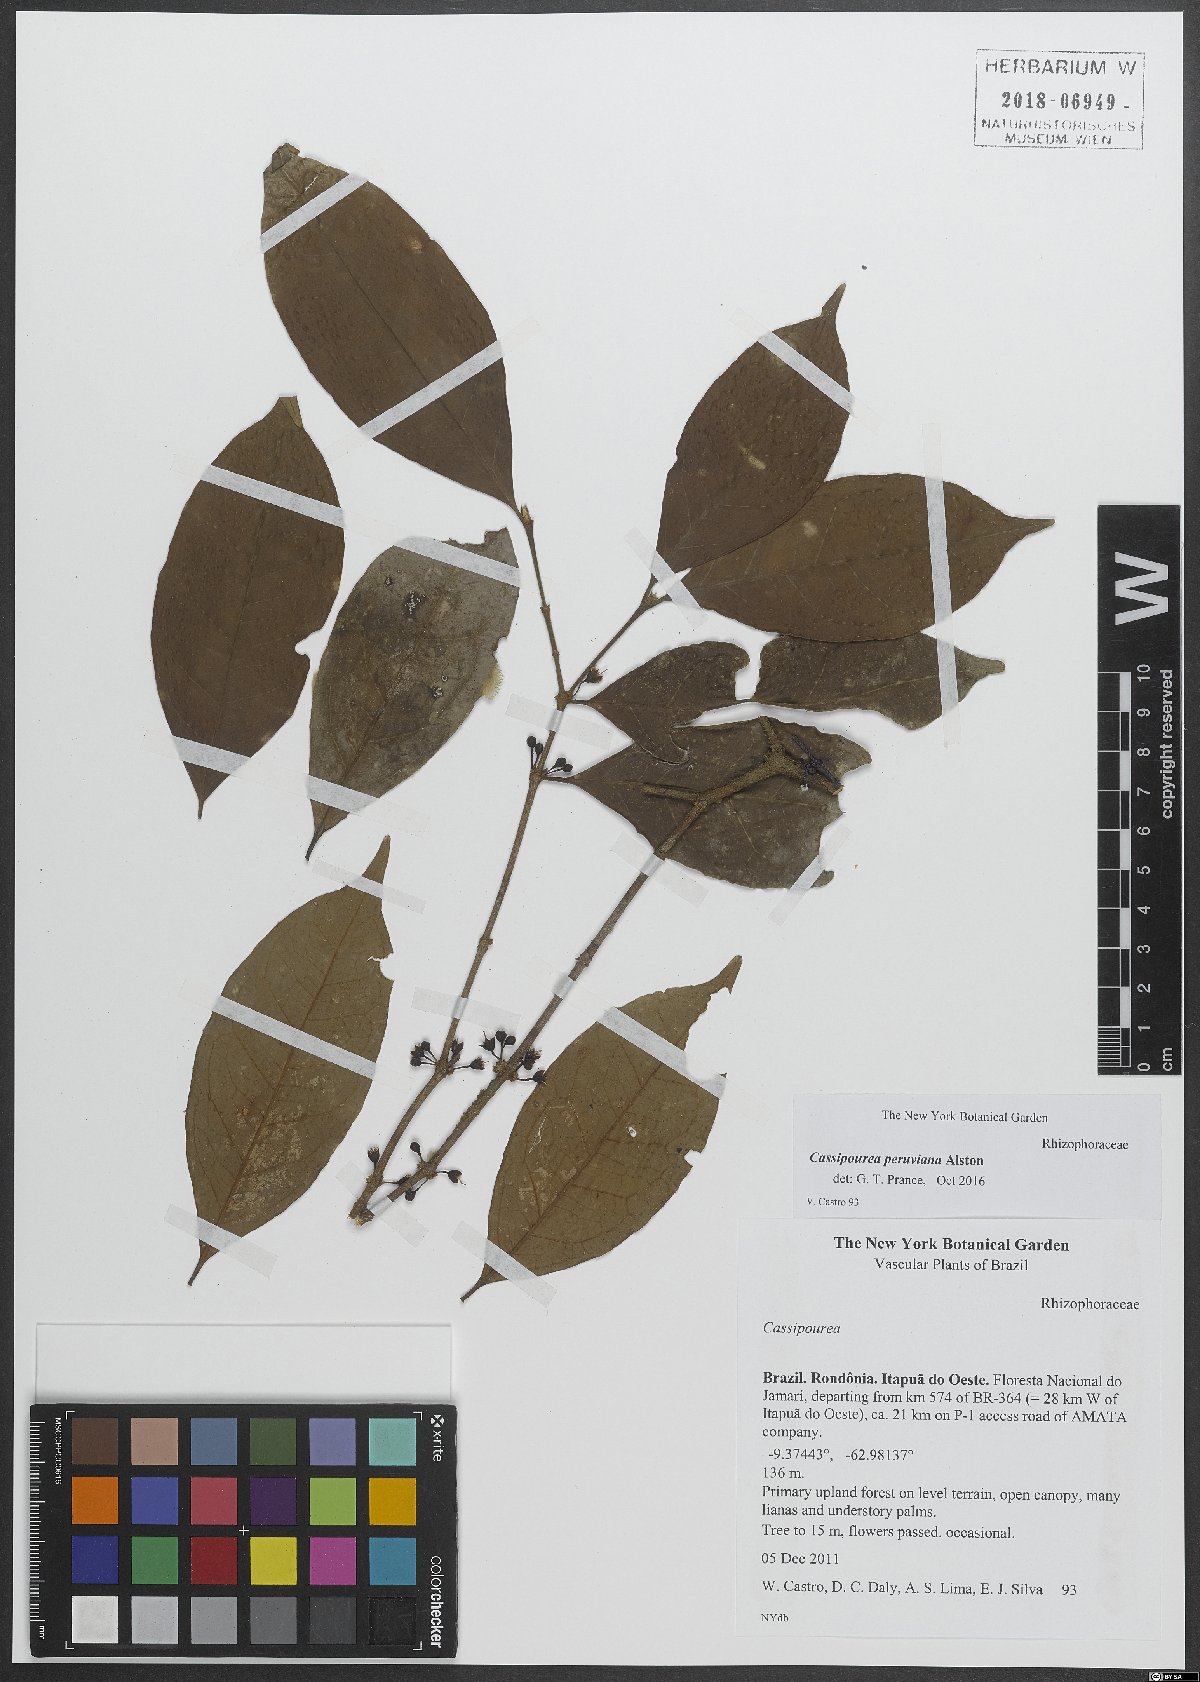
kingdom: Plantae
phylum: Tracheophyta
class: Magnoliopsida
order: Malpighiales
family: Rhizophoraceae
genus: Cassipourea
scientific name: Cassipourea peruviana
